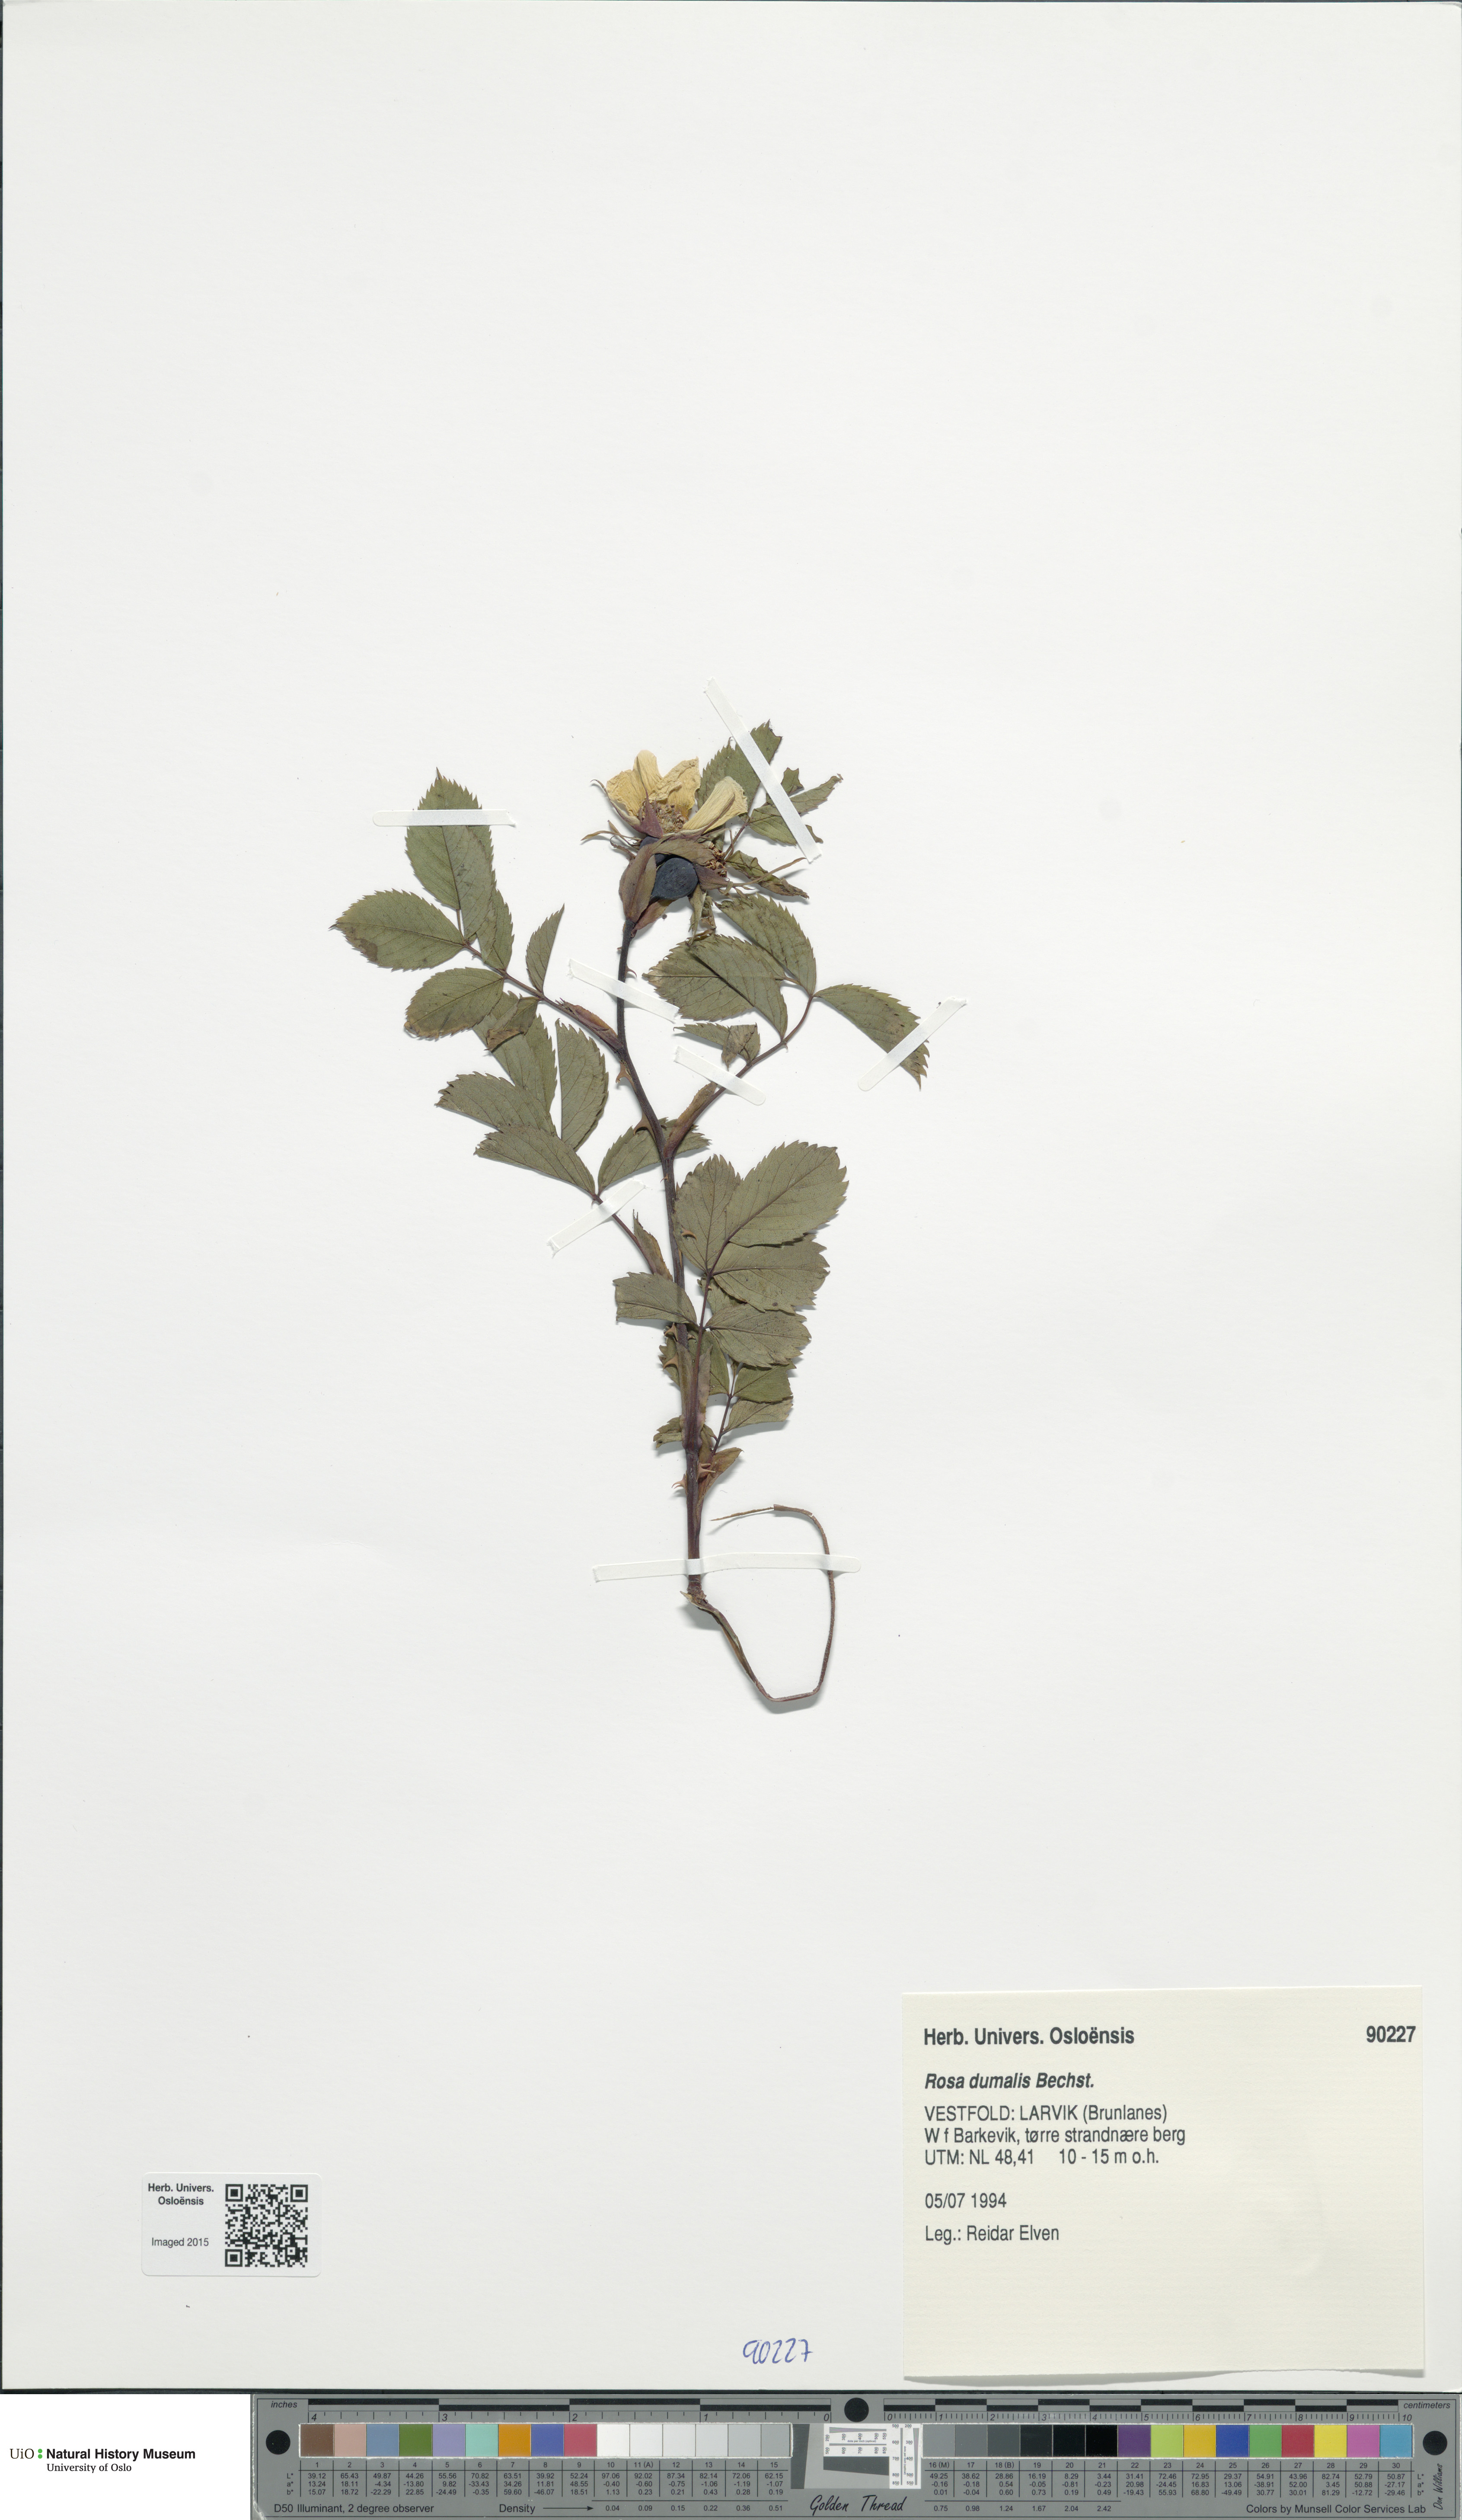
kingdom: Plantae
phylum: Tracheophyta
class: Magnoliopsida
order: Rosales
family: Rosaceae
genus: Rosa
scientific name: Rosa dumalis
